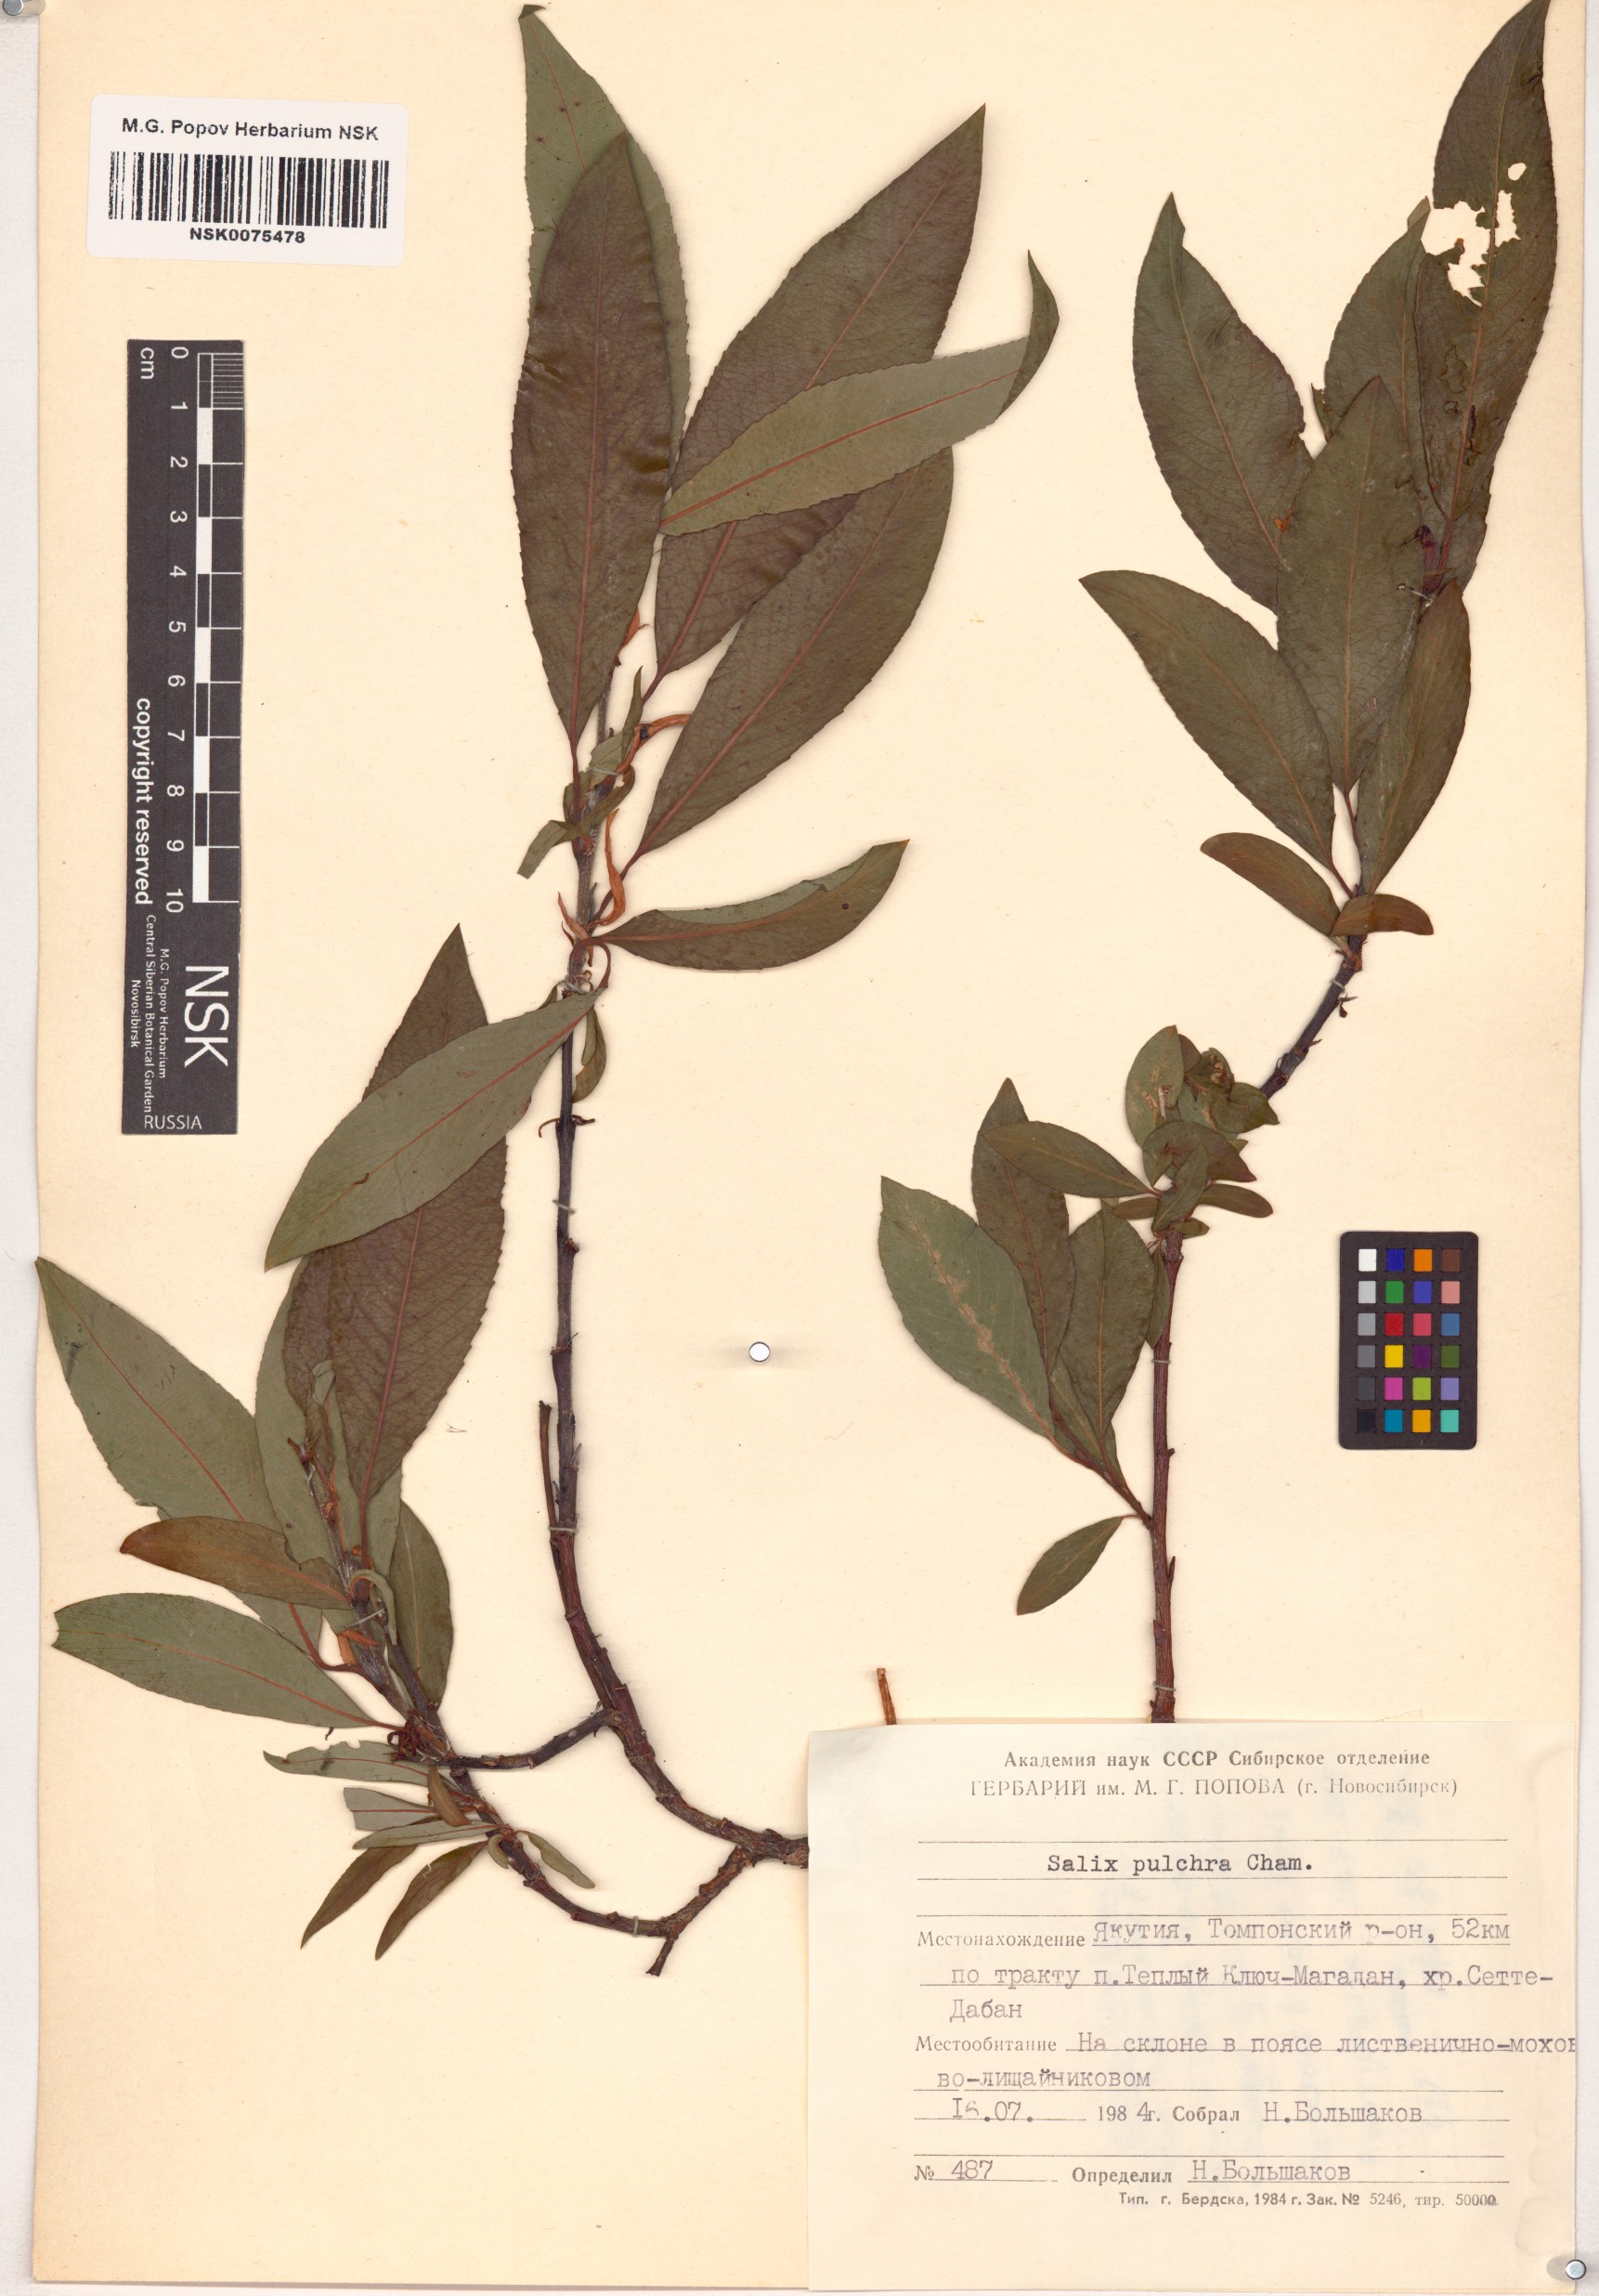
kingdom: Plantae
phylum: Tracheophyta
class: Magnoliopsida
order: Malpighiales
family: Salicaceae
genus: Salix
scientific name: Salix pulchra
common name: Diamond-leaved willow
